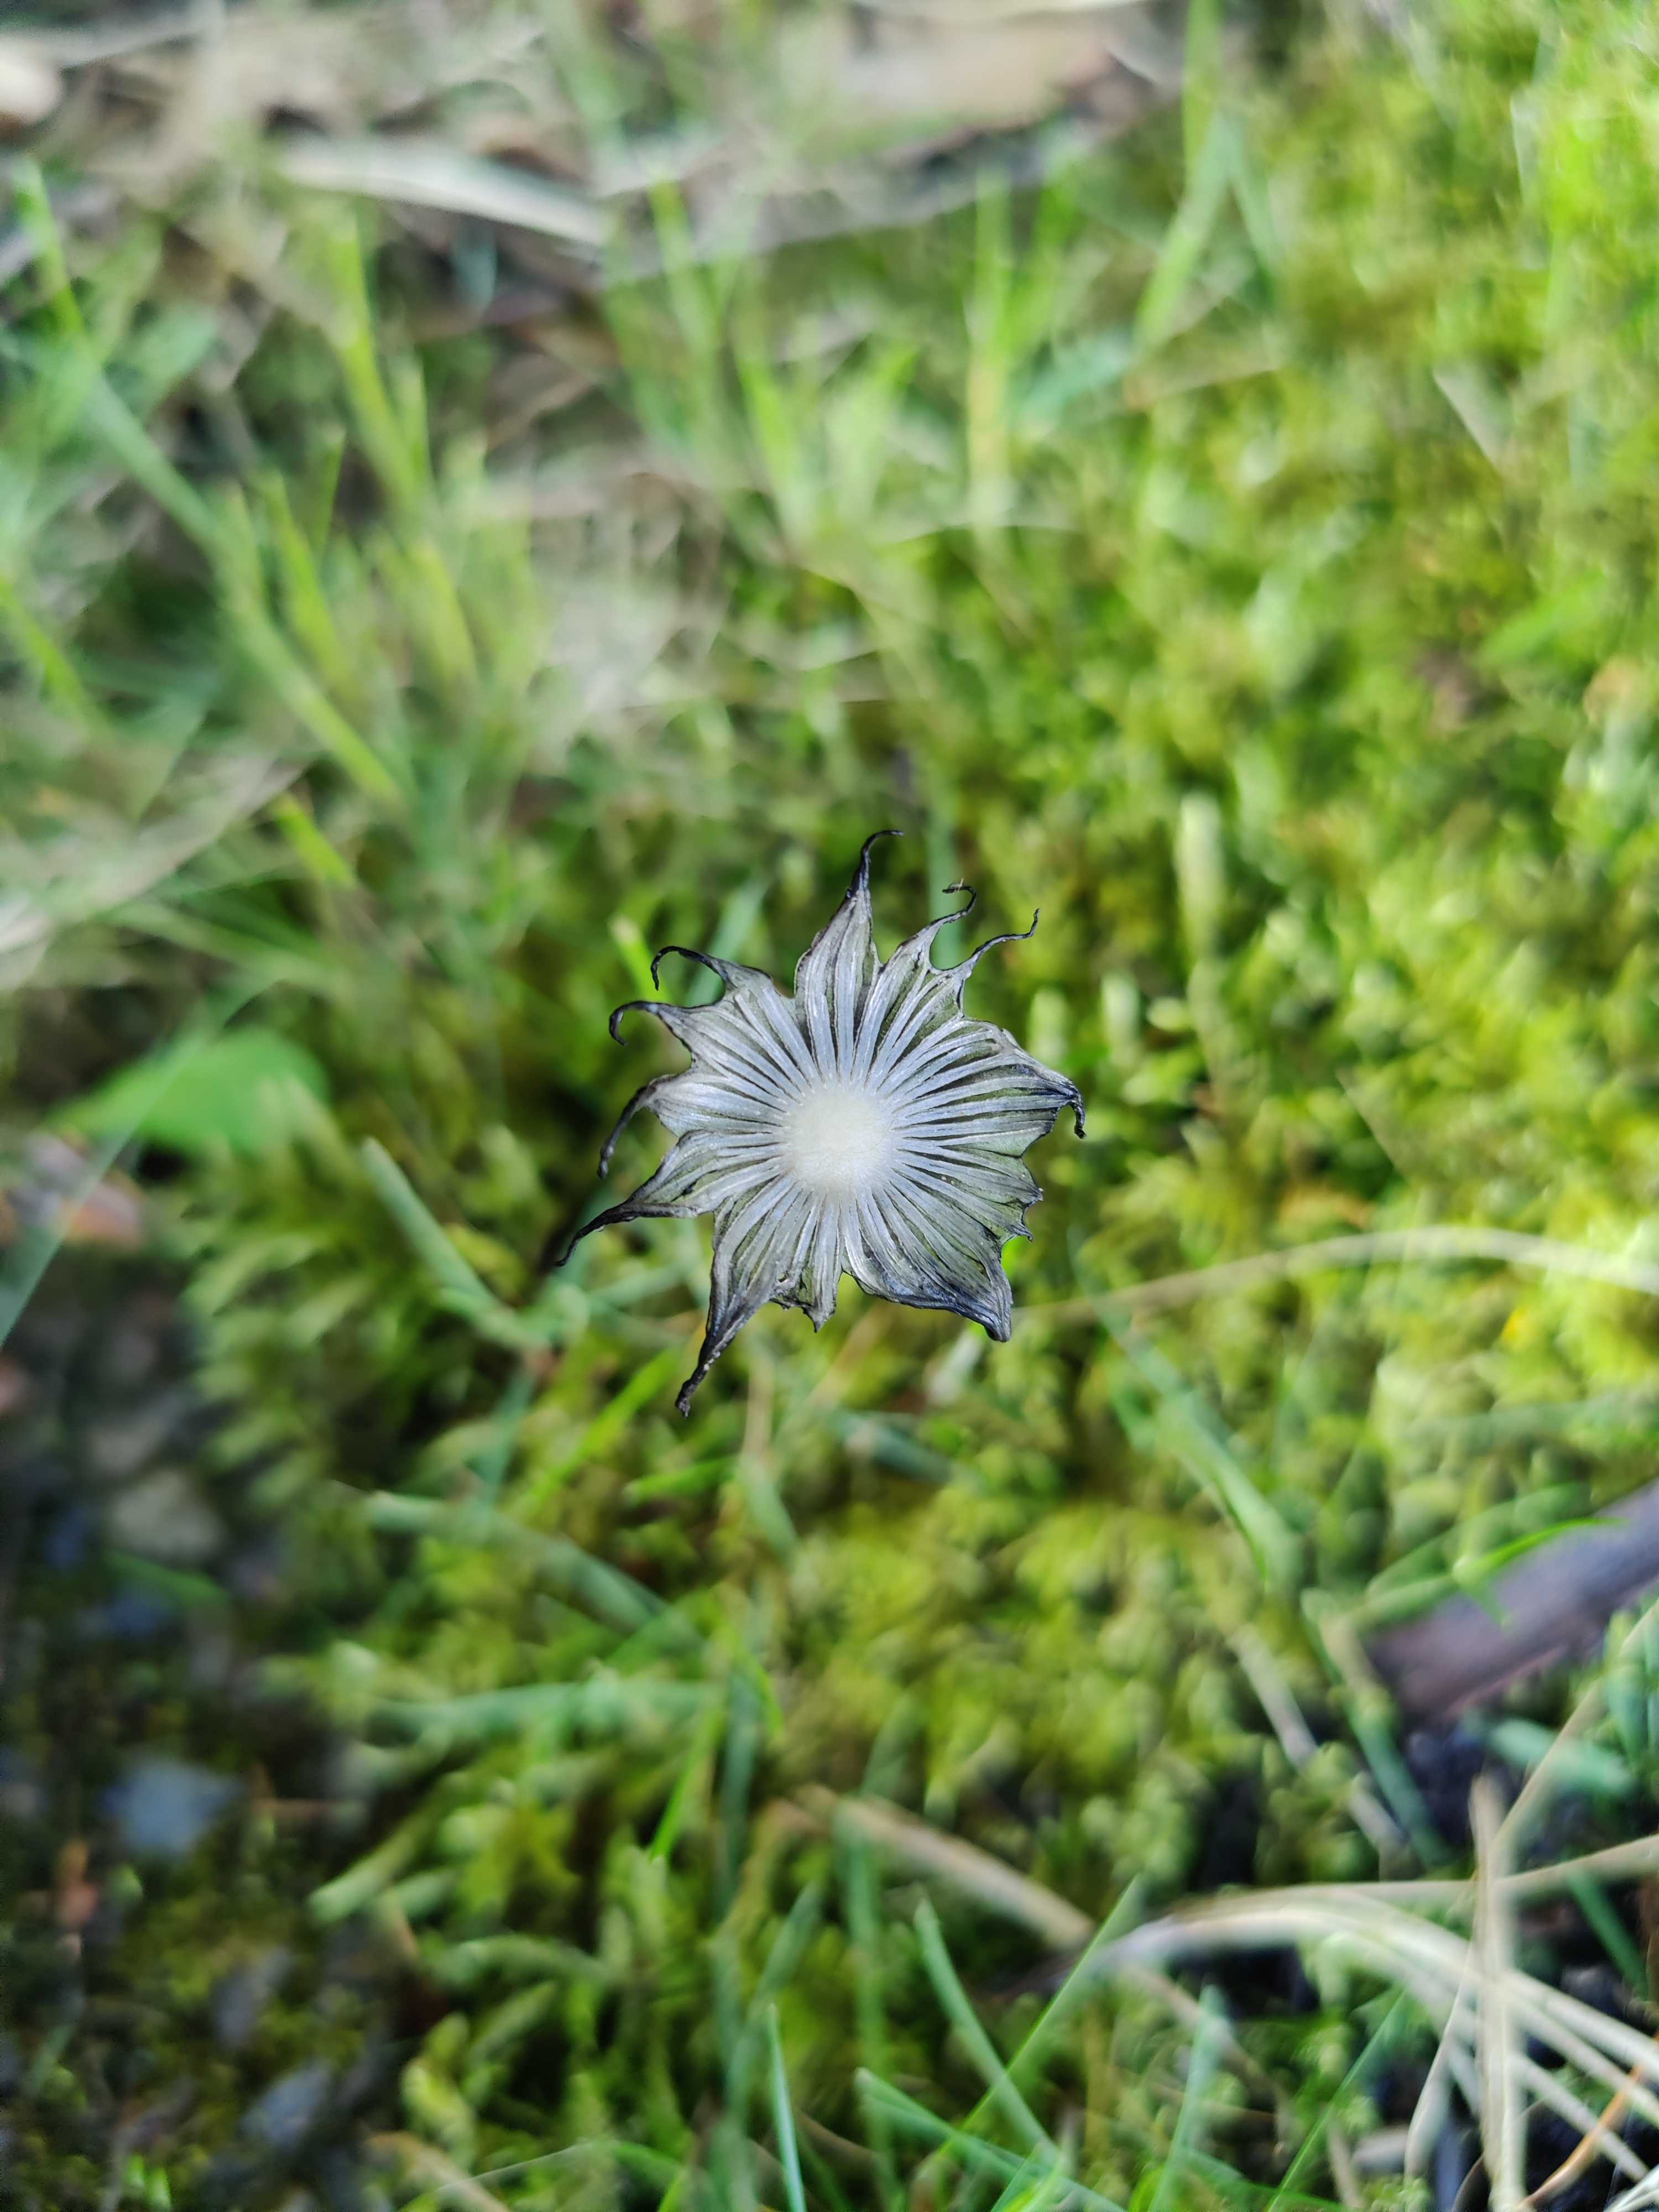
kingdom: Fungi
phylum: Basidiomycota
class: Agaricomycetes
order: Agaricales
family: Psathyrellaceae
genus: Coprinopsis
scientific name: Coprinopsis lagopus
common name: dunstokket blækhat
